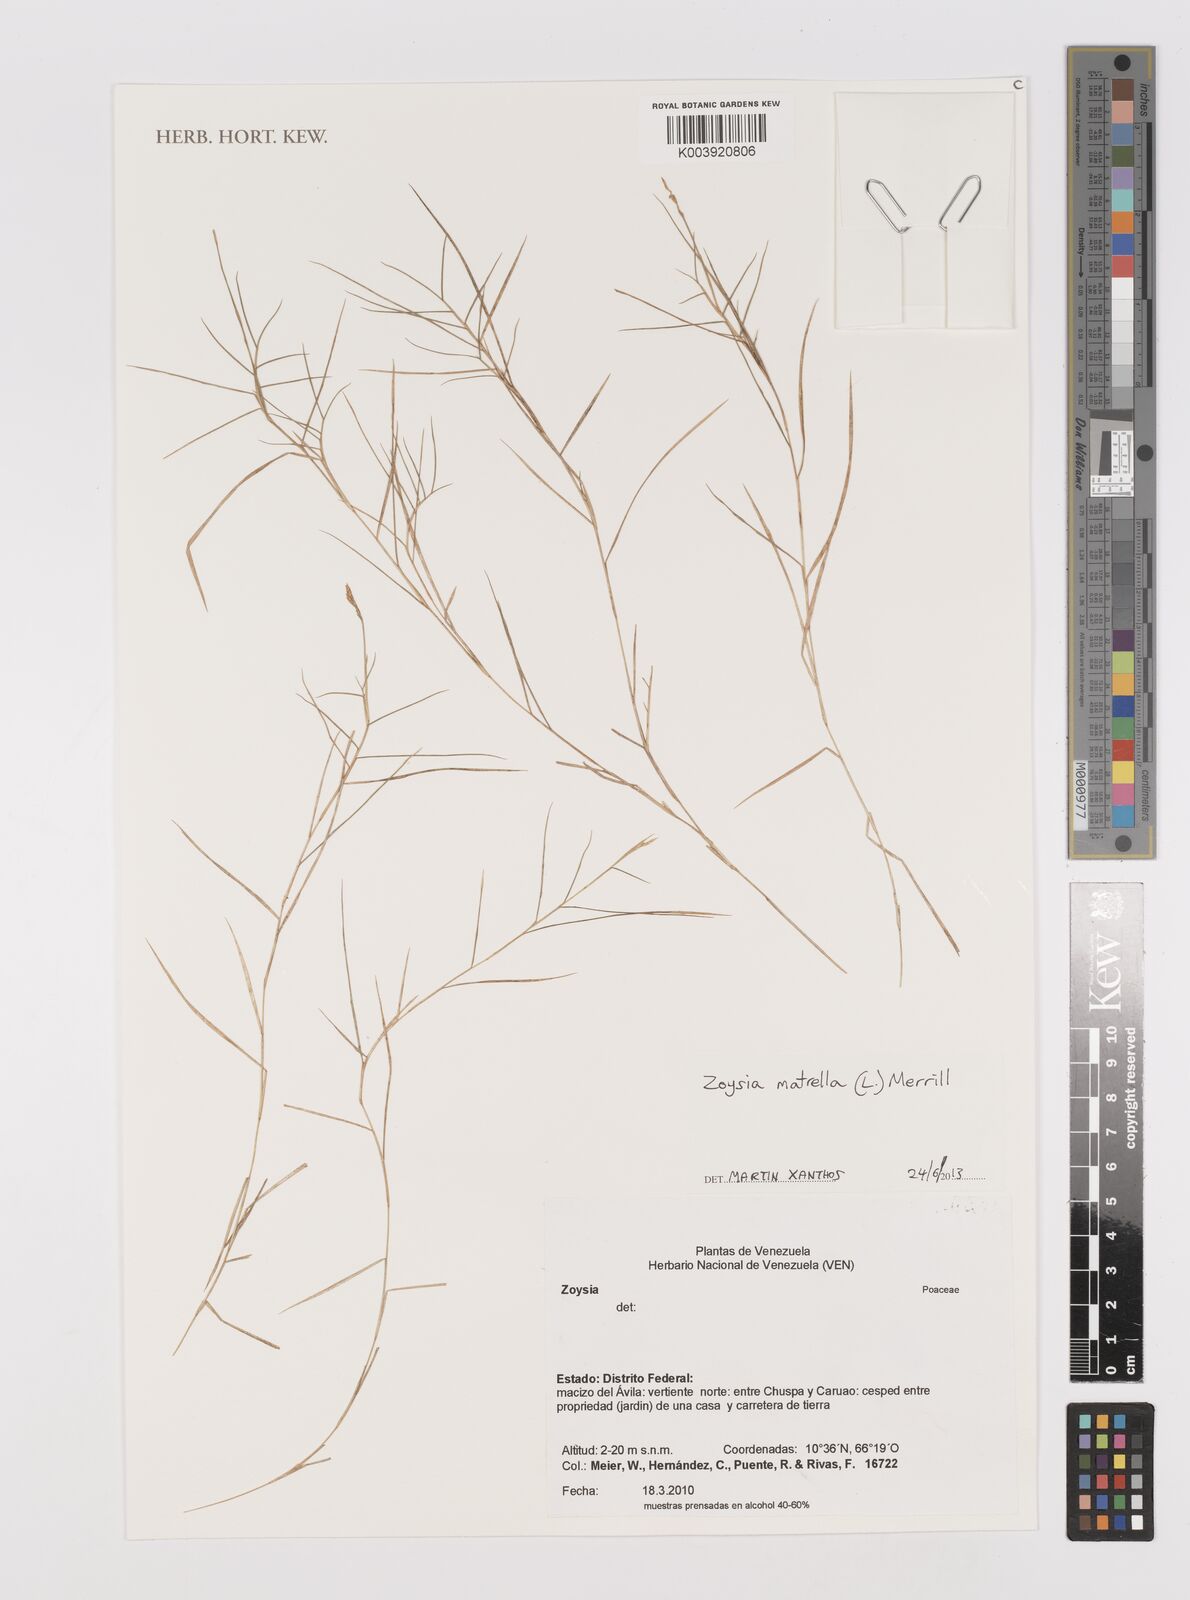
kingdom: Plantae
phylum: Tracheophyta
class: Liliopsida
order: Poales
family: Poaceae
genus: Zoysia
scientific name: Zoysia matrella
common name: Manila grass
